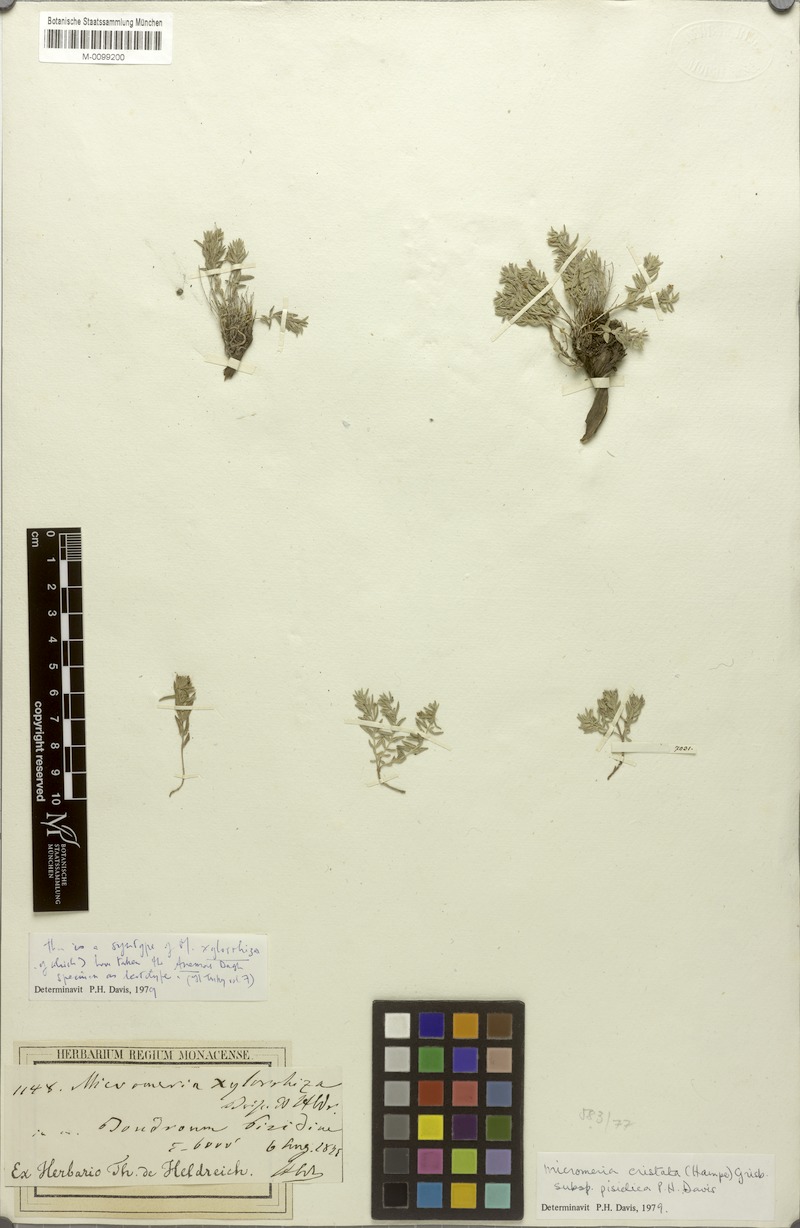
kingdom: Plantae
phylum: Tracheophyta
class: Magnoliopsida
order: Lamiales
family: Lamiaceae
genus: Micromeria
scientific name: Micromeria cristata
